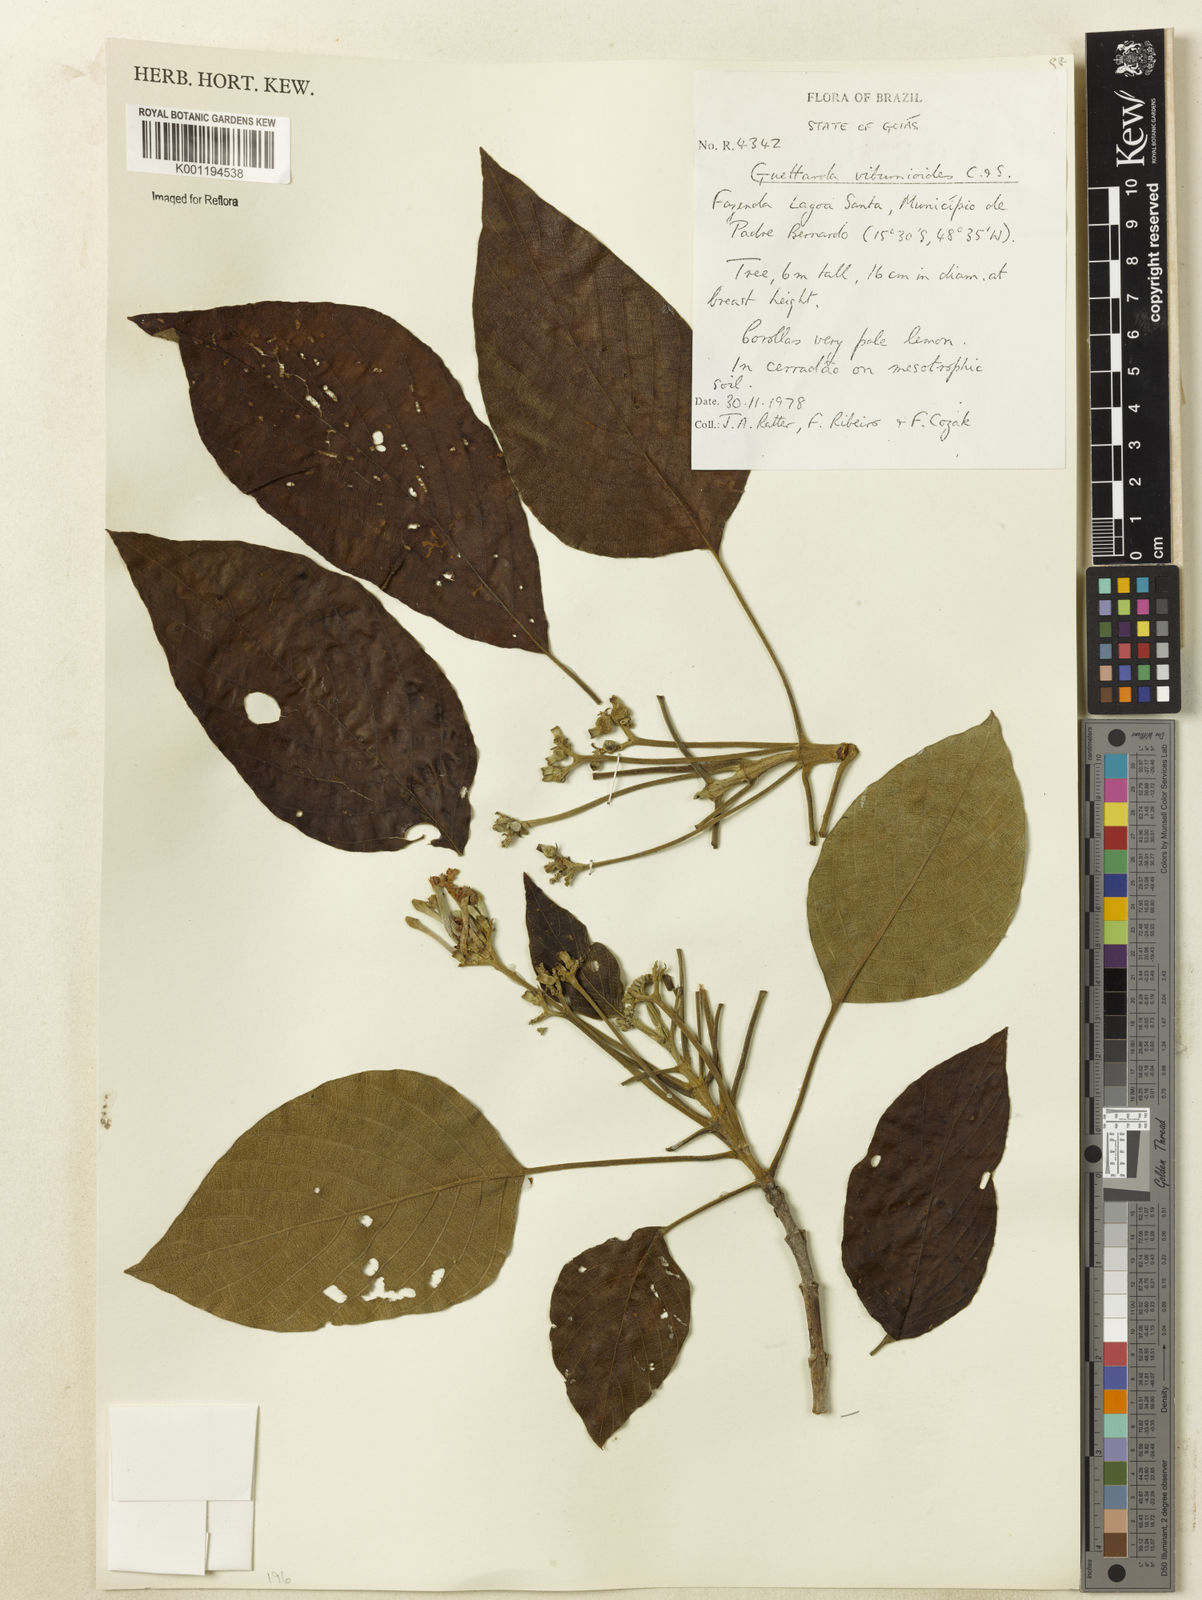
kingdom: Plantae
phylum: Tracheophyta
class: Magnoliopsida
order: Gentianales
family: Rubiaceae
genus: Guettarda
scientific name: Guettarda viburnoides
